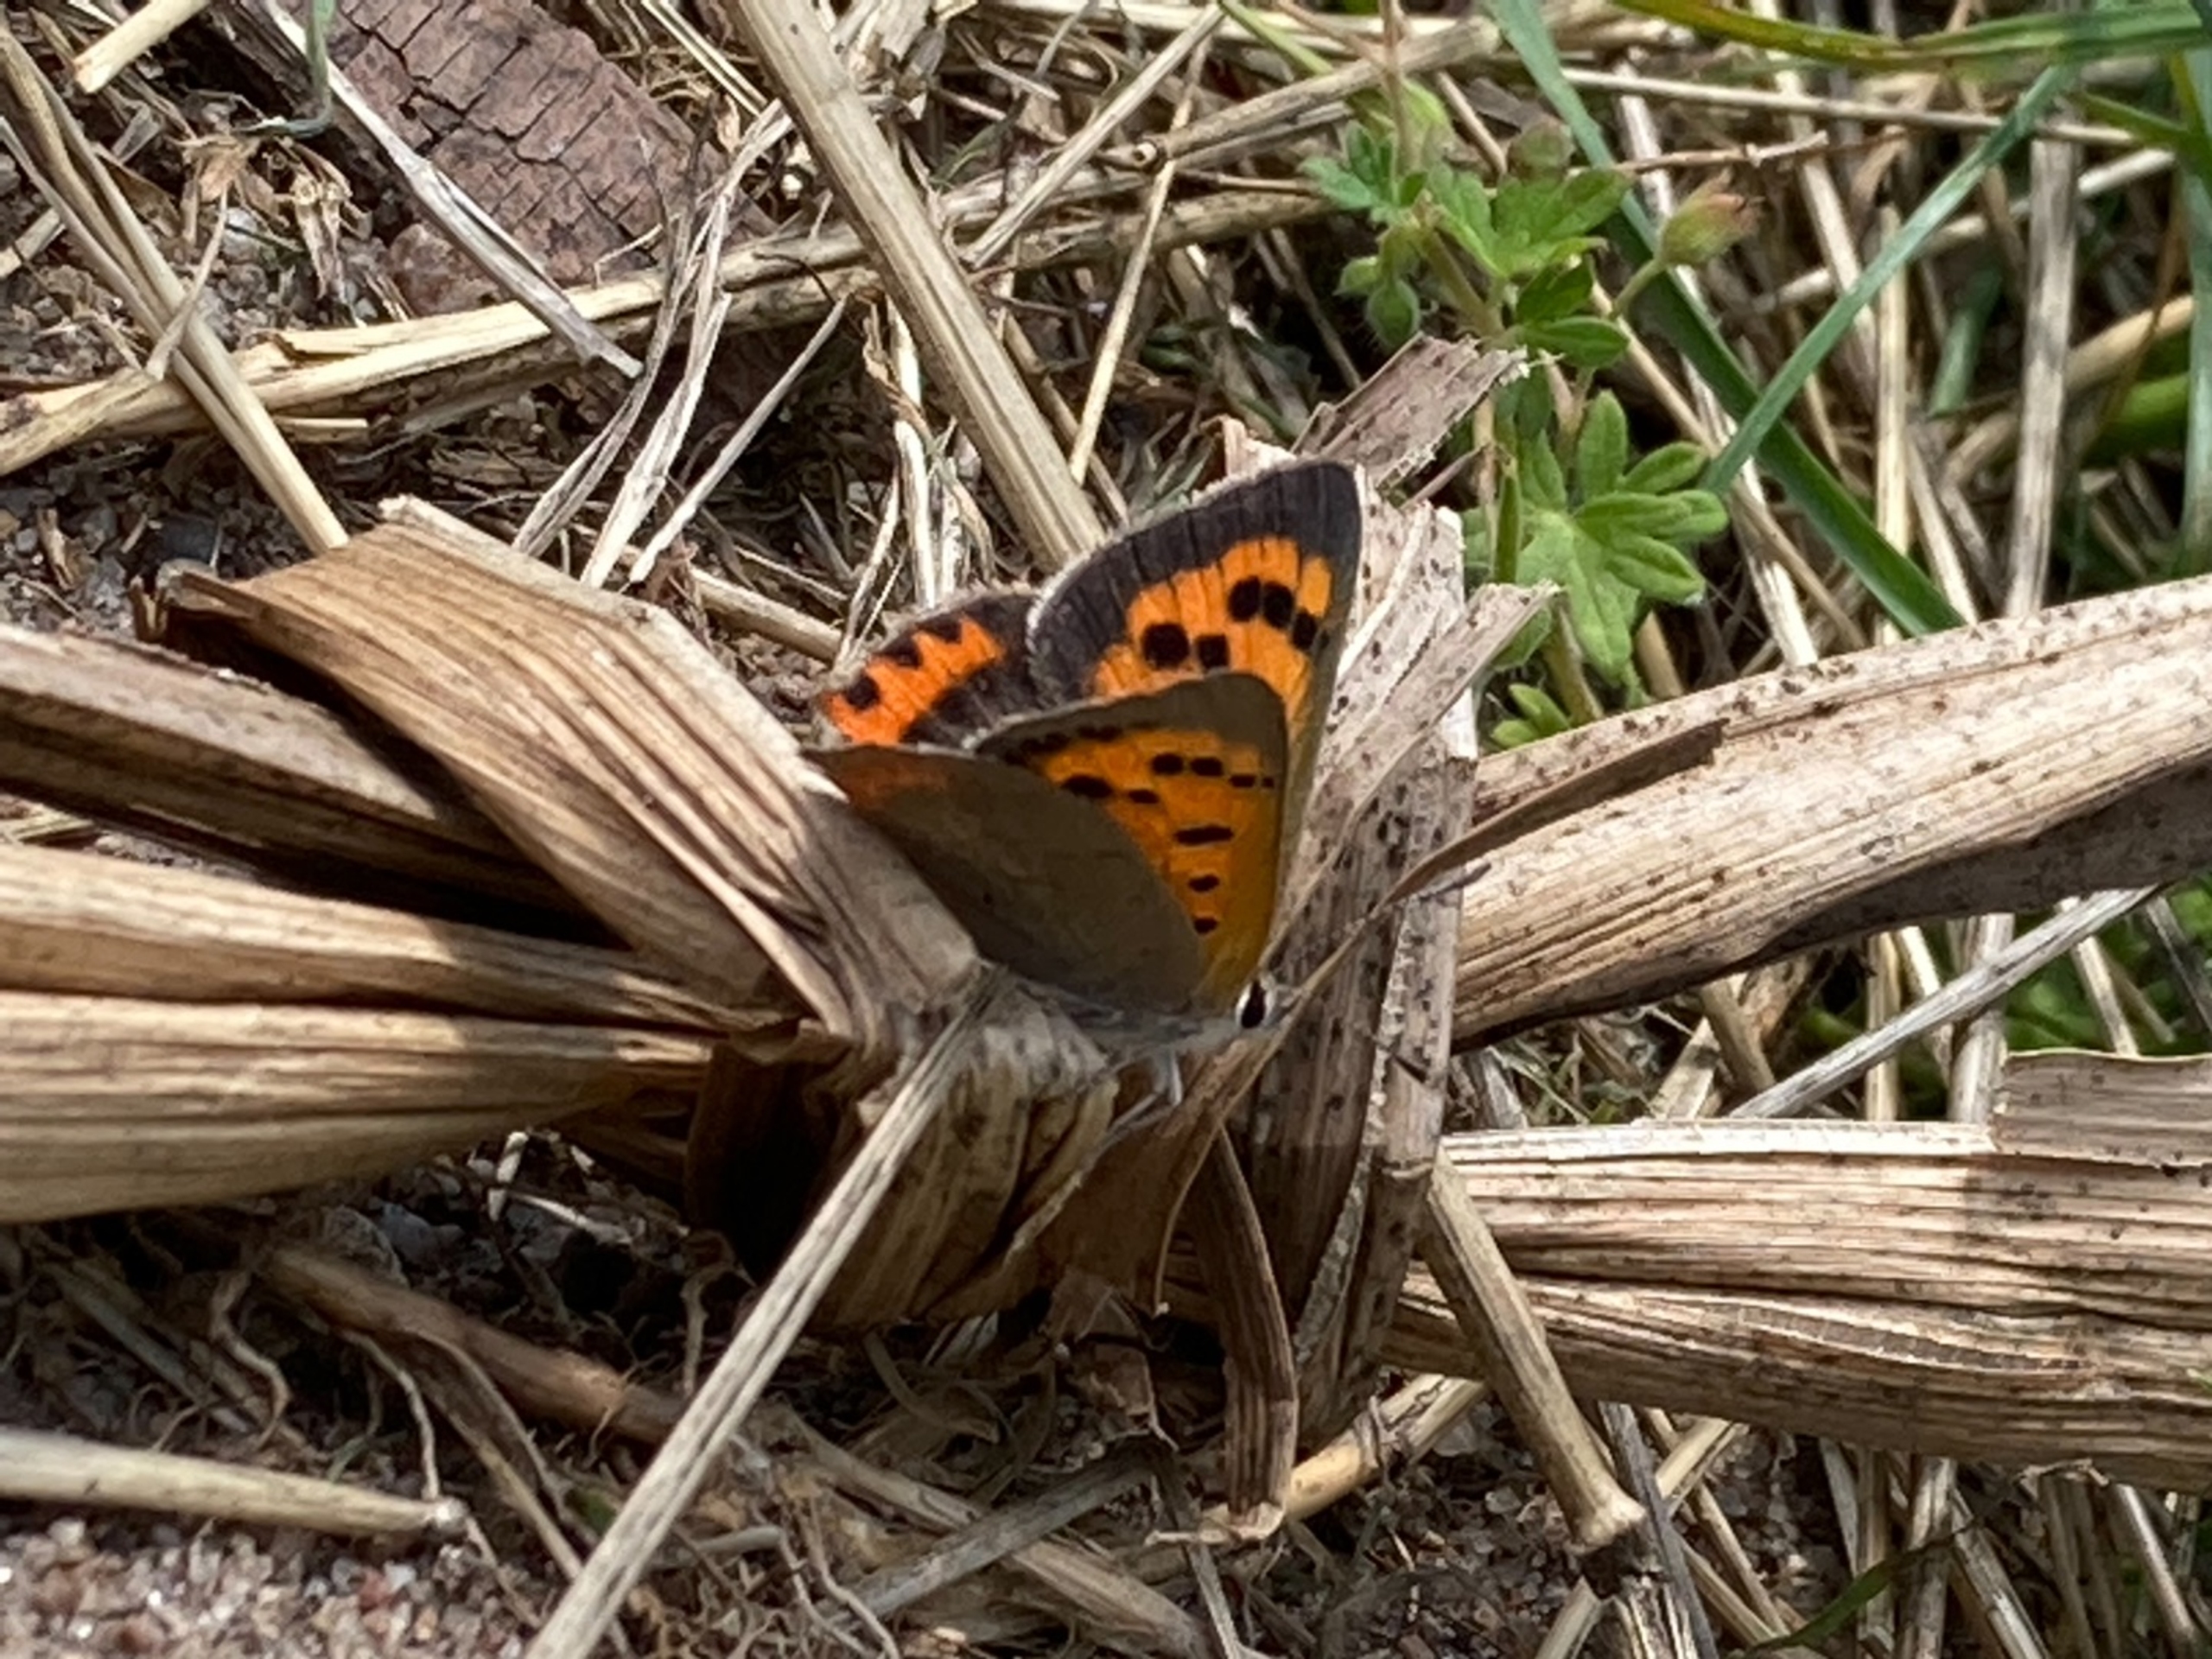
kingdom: Animalia
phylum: Arthropoda
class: Insecta
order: Lepidoptera
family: Lycaenidae
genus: Lycaena
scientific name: Lycaena phlaeas
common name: Lille ildfugl
